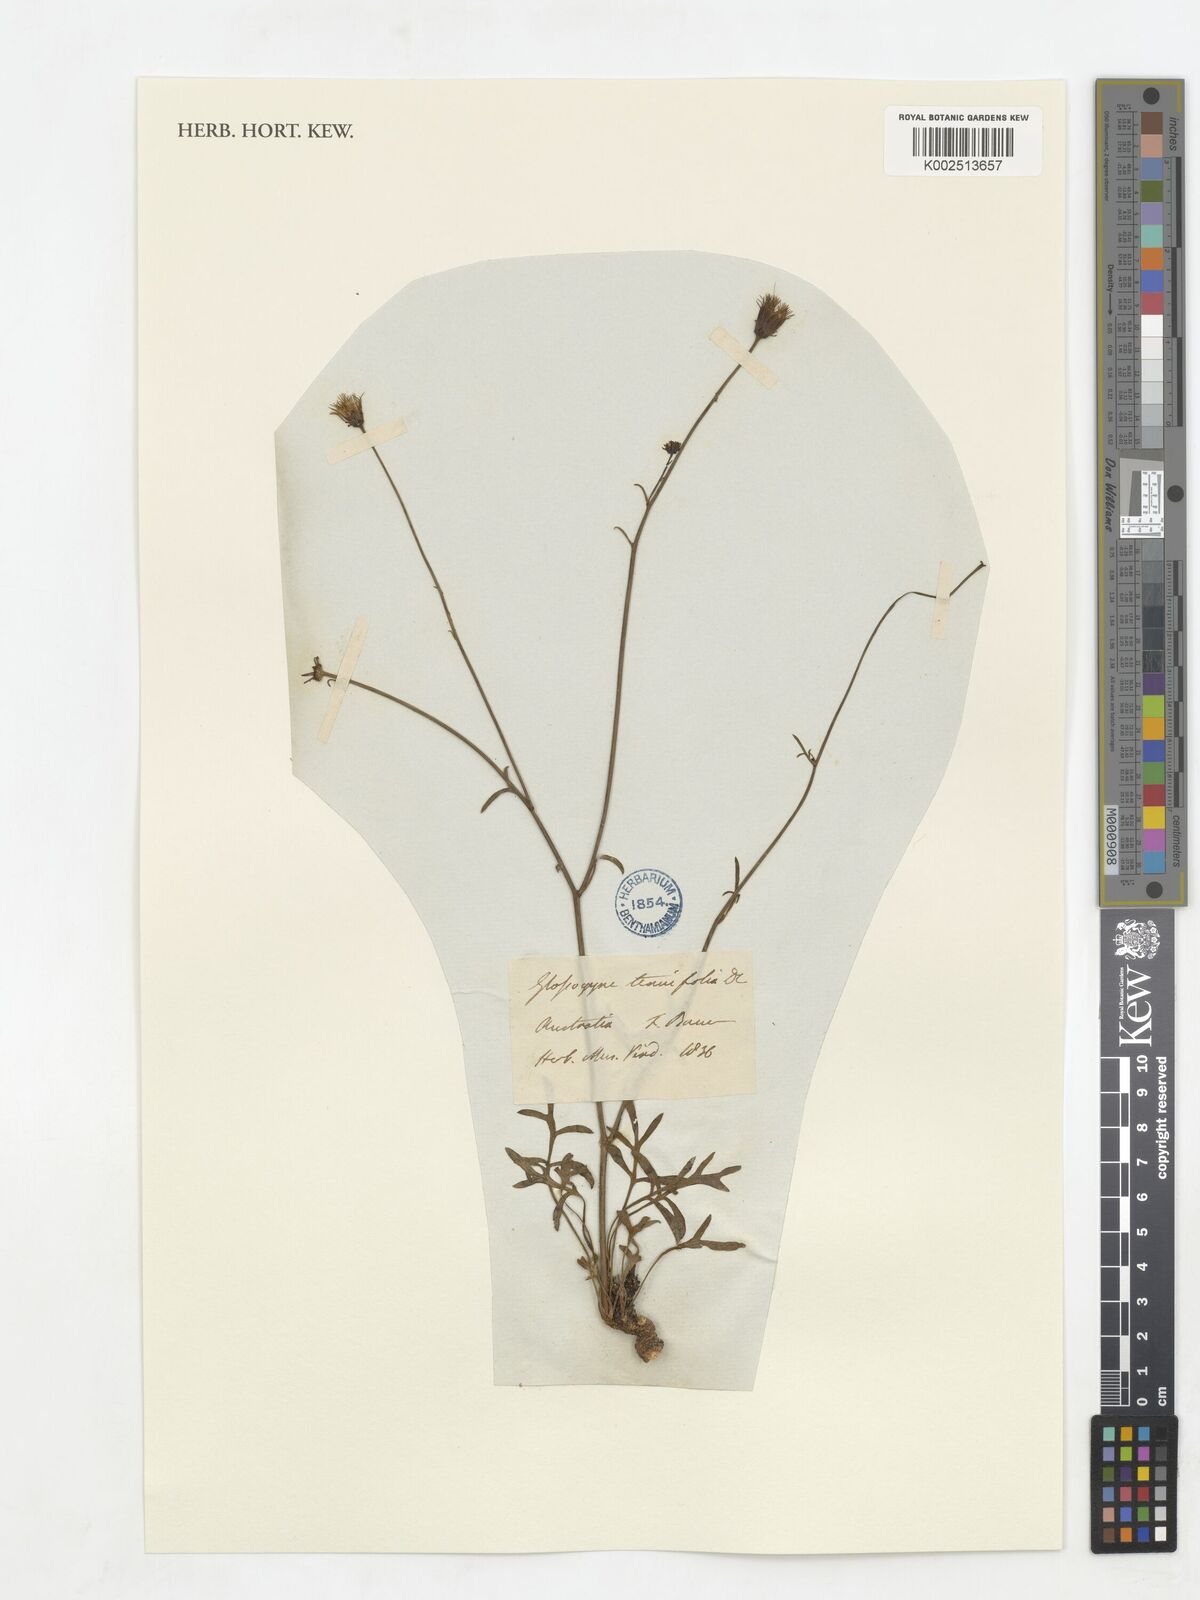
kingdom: Plantae
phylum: Tracheophyta
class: Magnoliopsida
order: Asterales
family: Asteraceae
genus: Glossocardia
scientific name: Glossocardia bidens
